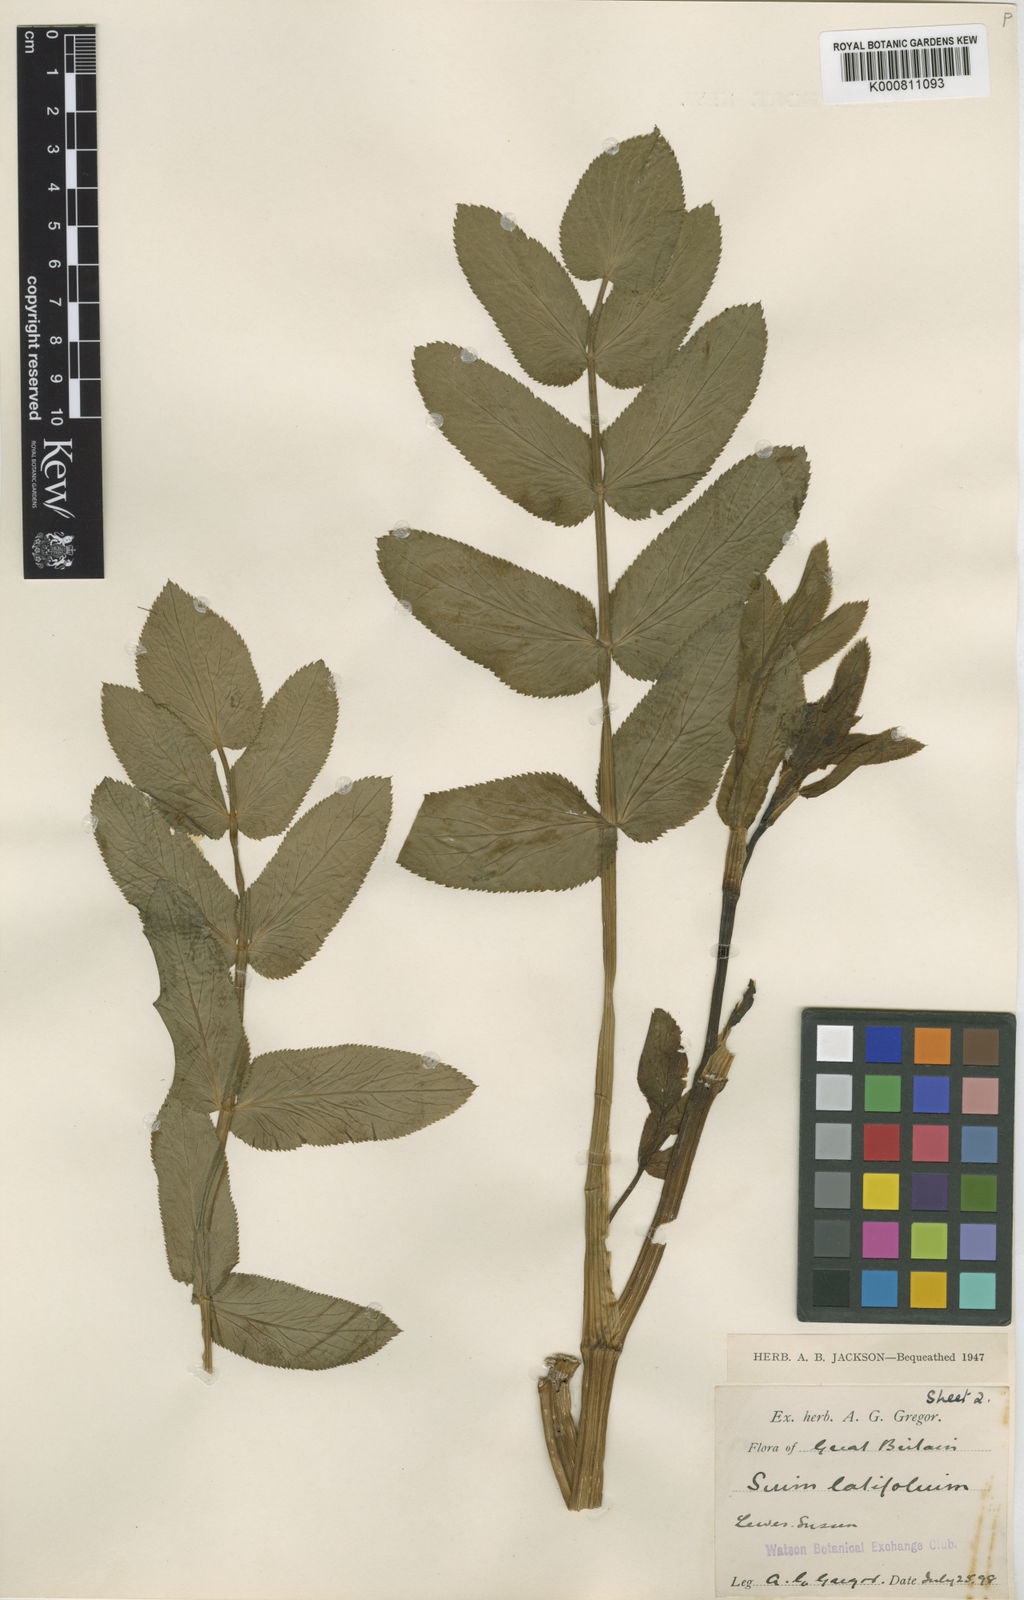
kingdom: Plantae
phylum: Tracheophyta
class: Magnoliopsida
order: Apiales
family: Apiaceae
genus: Sium
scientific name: Sium latifolium
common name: Greater water-parsnip
